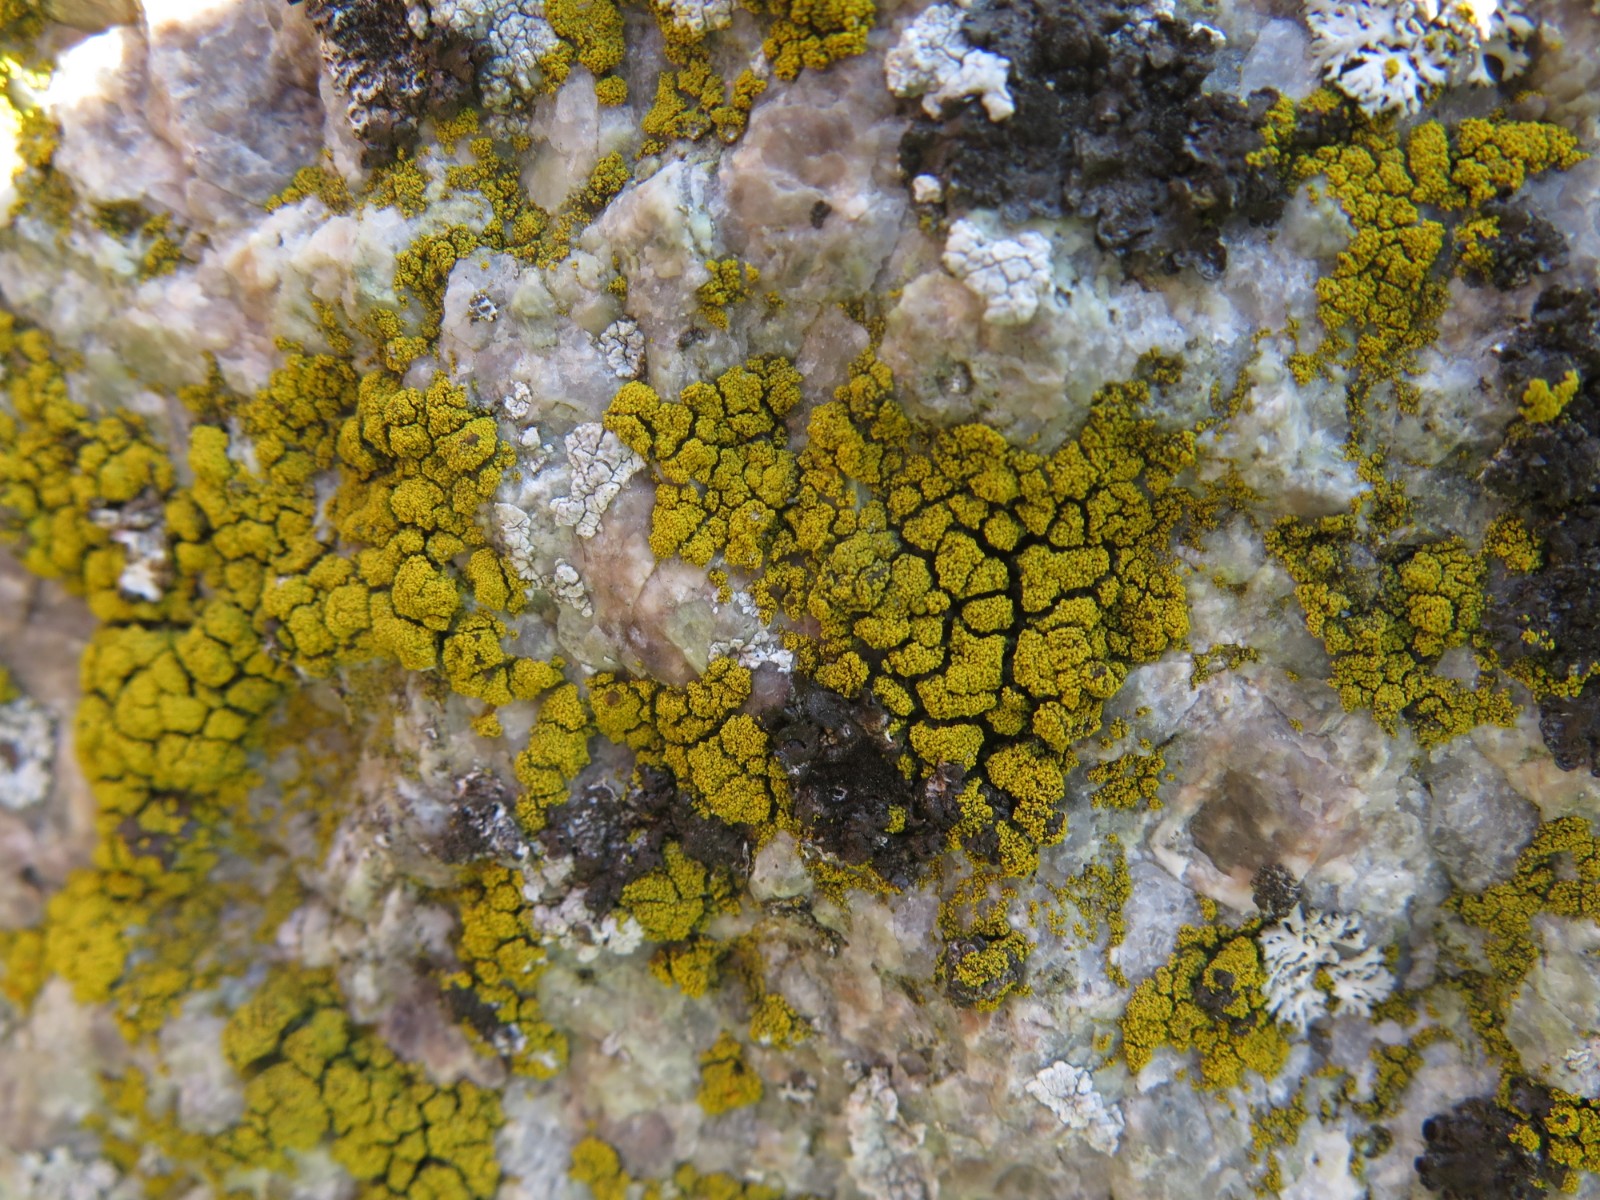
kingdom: Fungi
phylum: Ascomycota
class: Candelariomycetes
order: Candelariales
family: Candelariaceae
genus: Candelariella
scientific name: Candelariella coralliza
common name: pude-æggeblommelav
